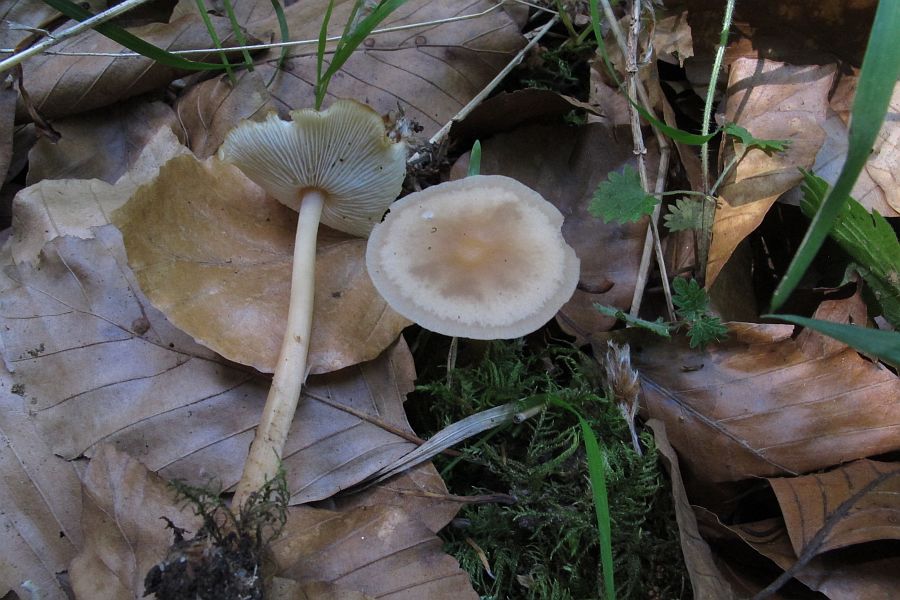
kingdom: Fungi
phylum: Basidiomycota
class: Agaricomycetes
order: Agaricales
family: Omphalotaceae
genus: Gymnopus
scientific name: Gymnopus aquosus
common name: bleg fladhat
